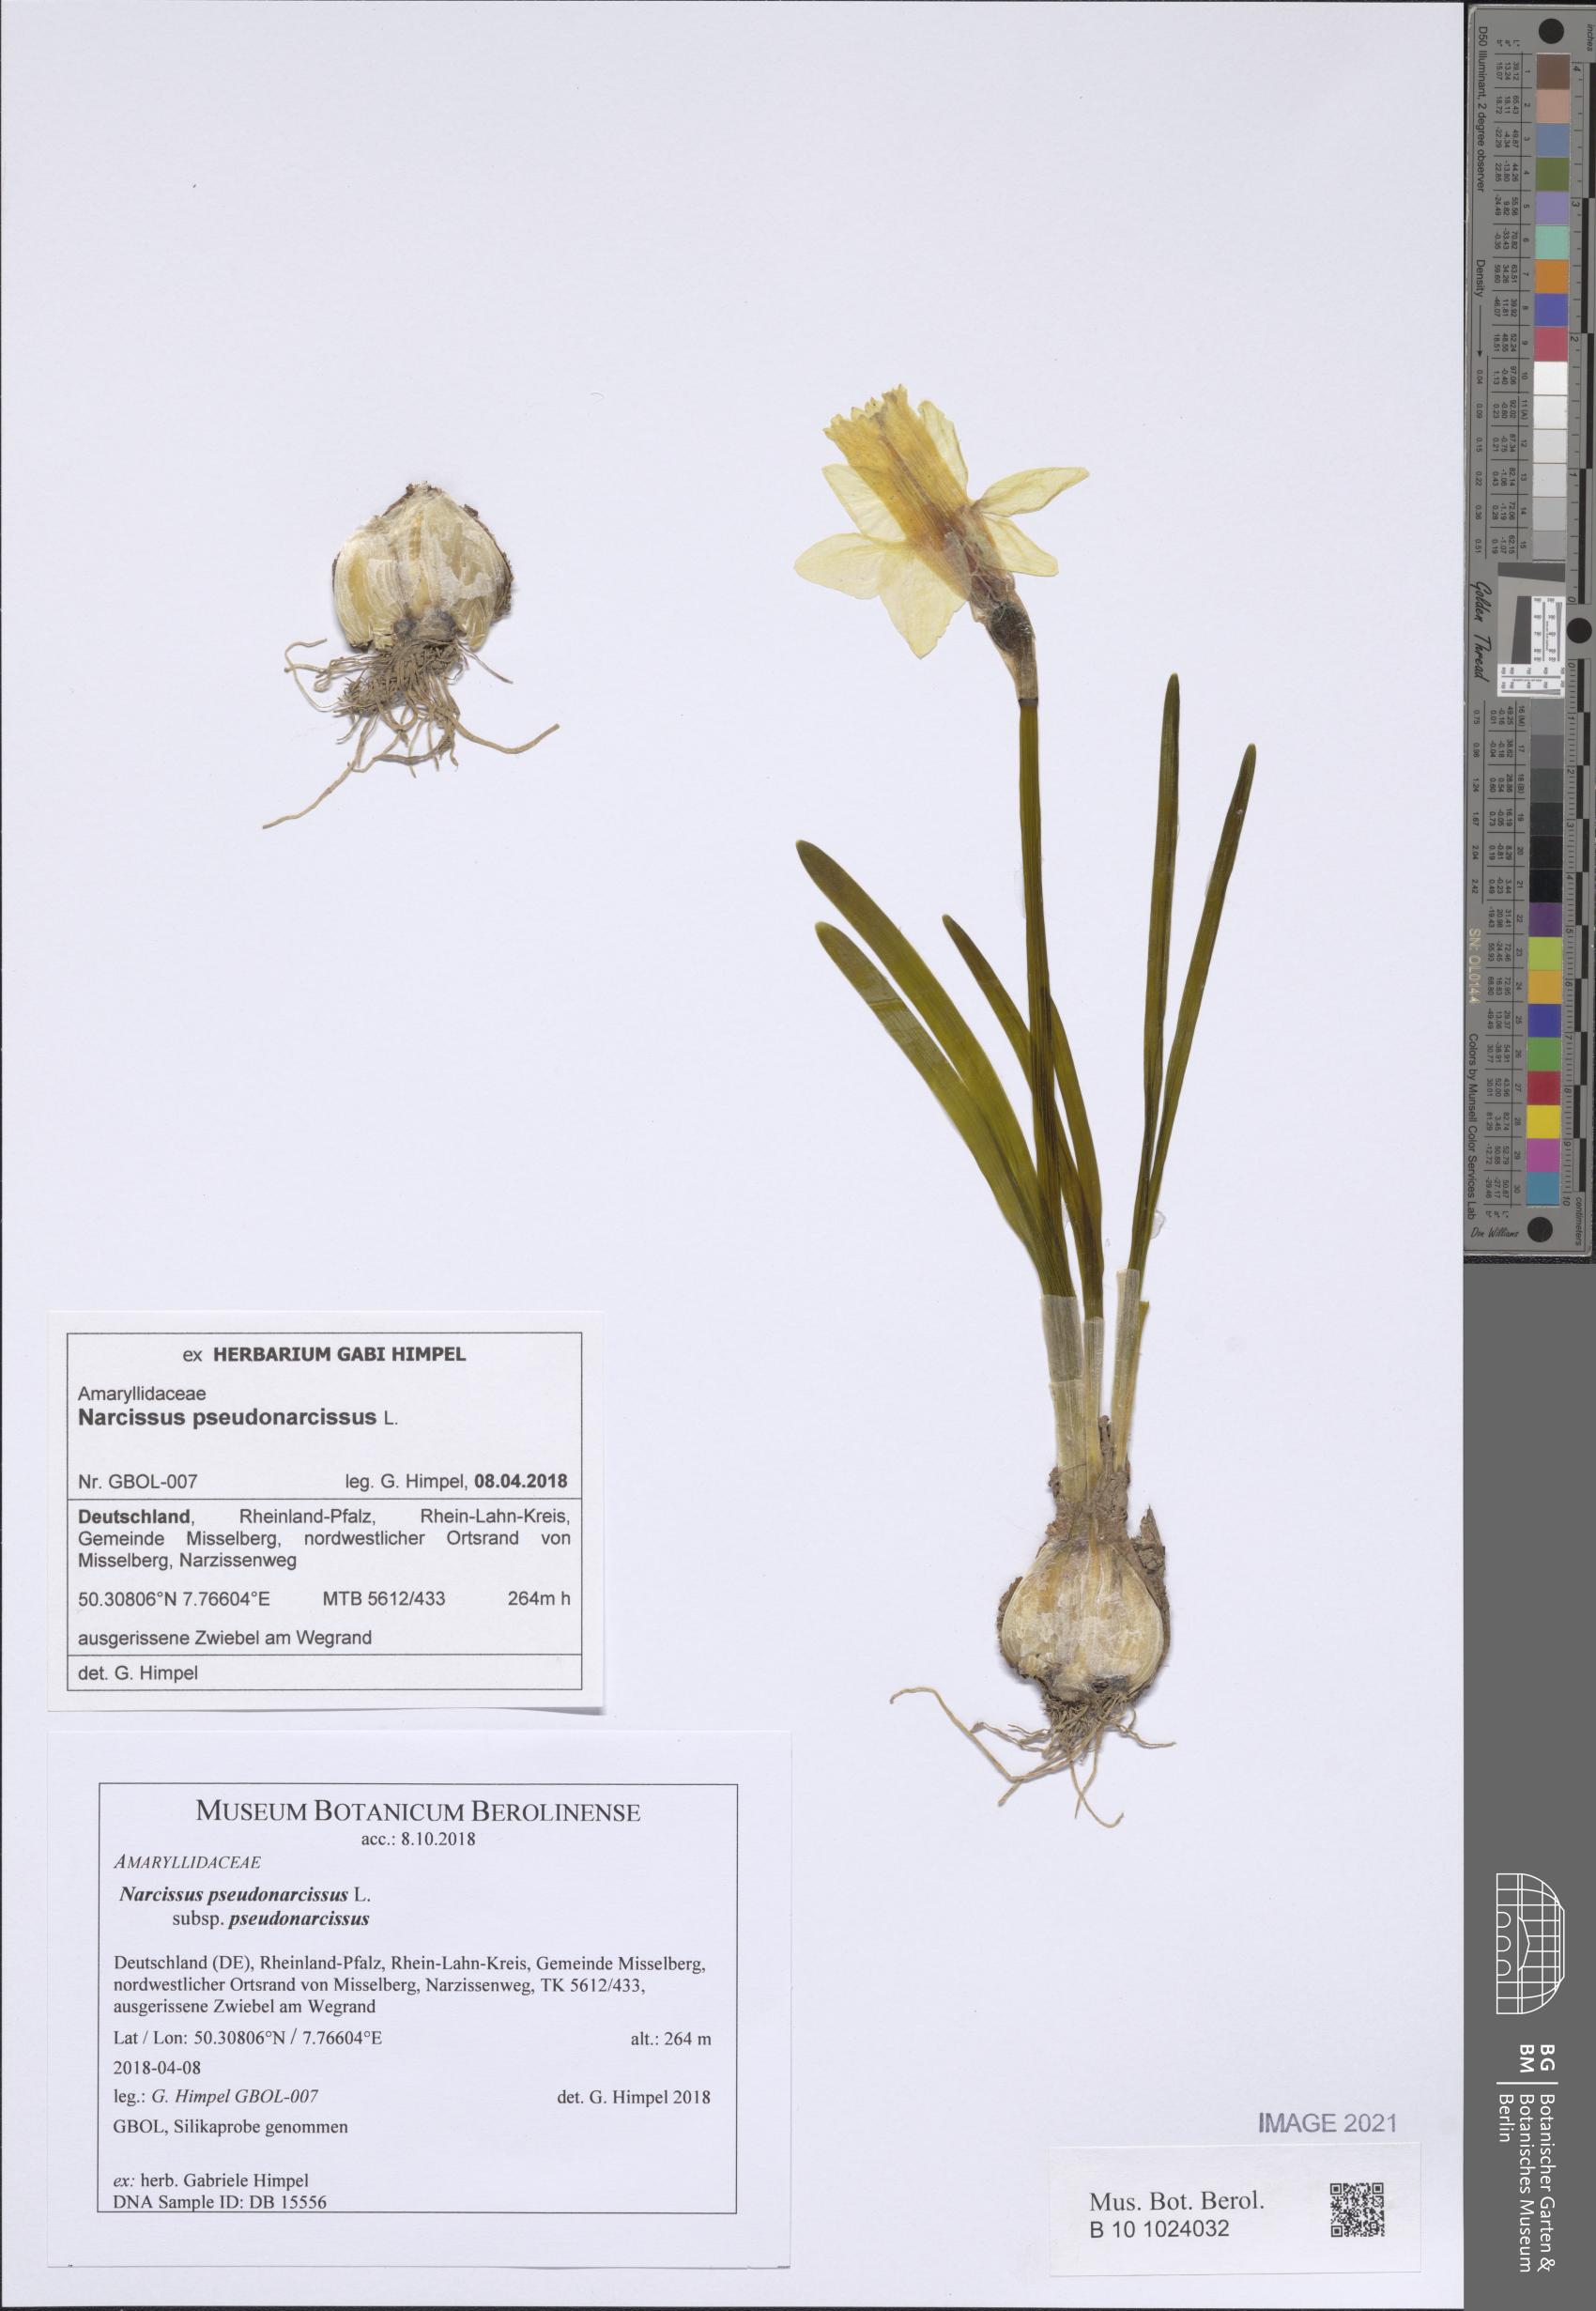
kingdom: Plantae
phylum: Tracheophyta
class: Liliopsida
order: Asparagales
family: Amaryllidaceae
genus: Narcissus
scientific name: Narcissus pseudonarcissus
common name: Daffodil
